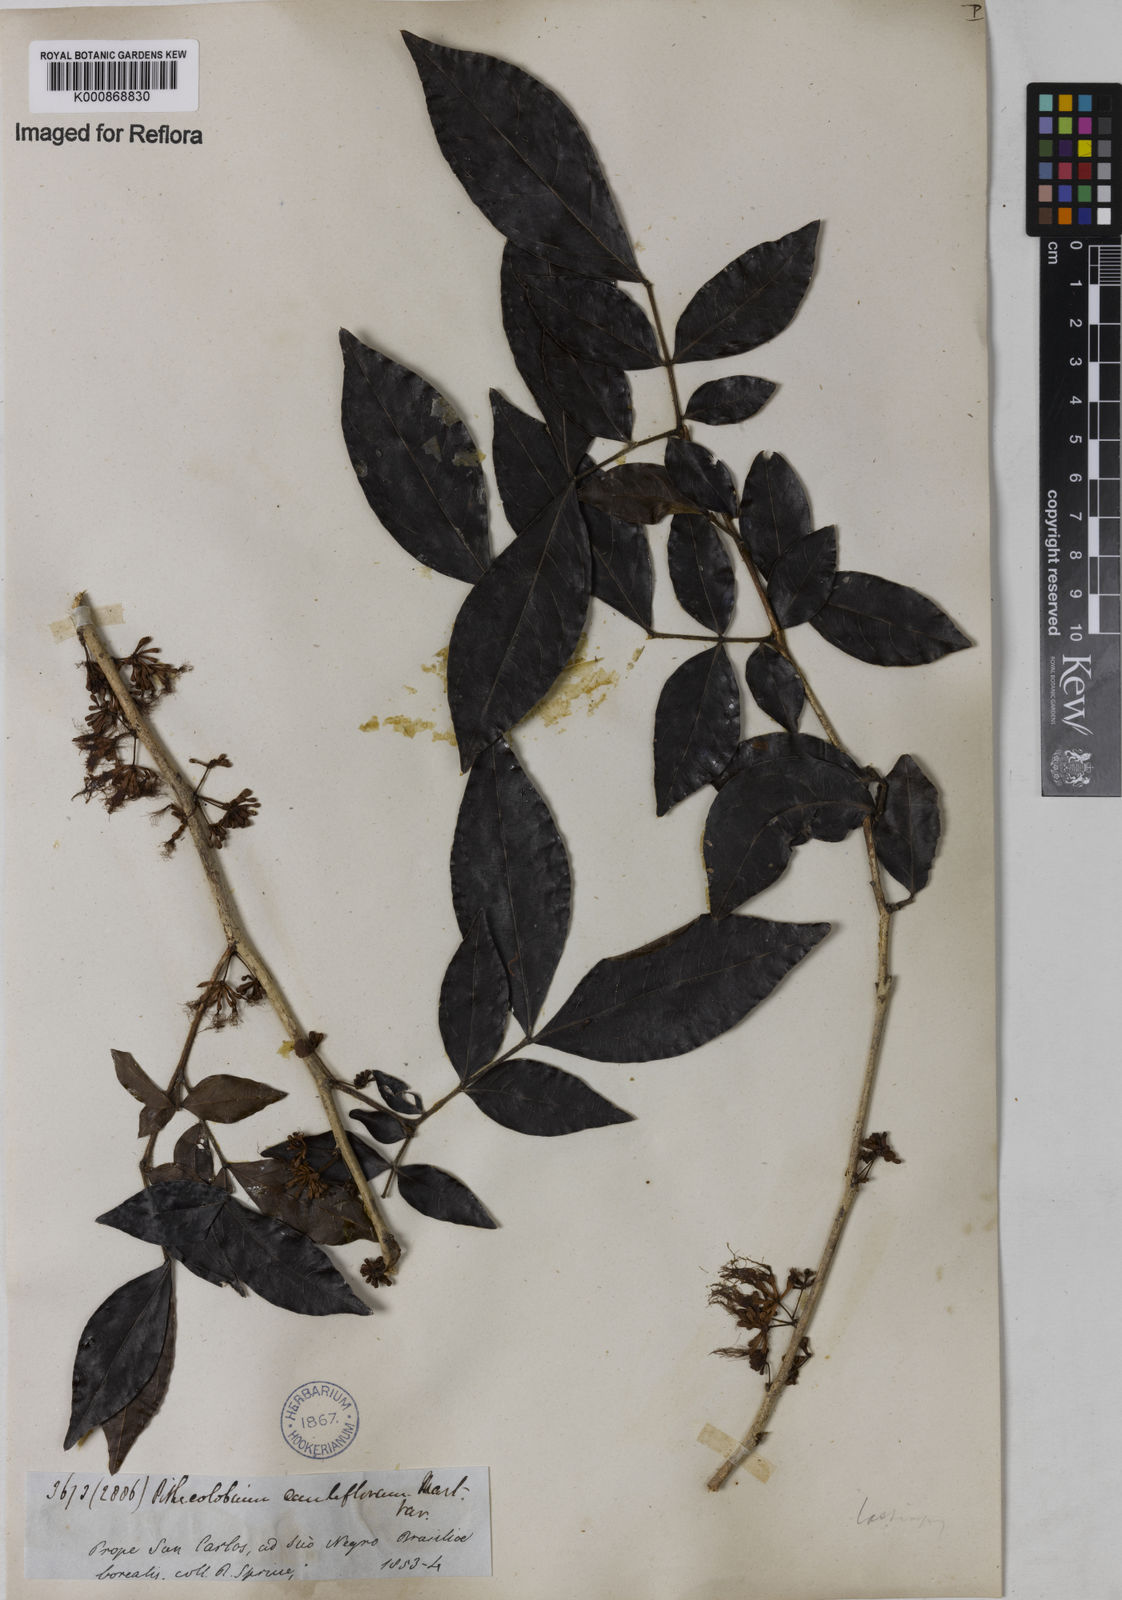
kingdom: Plantae
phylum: Tracheophyta
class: Magnoliopsida
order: Fabales
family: Fabaceae
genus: Zygia
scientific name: Zygia
